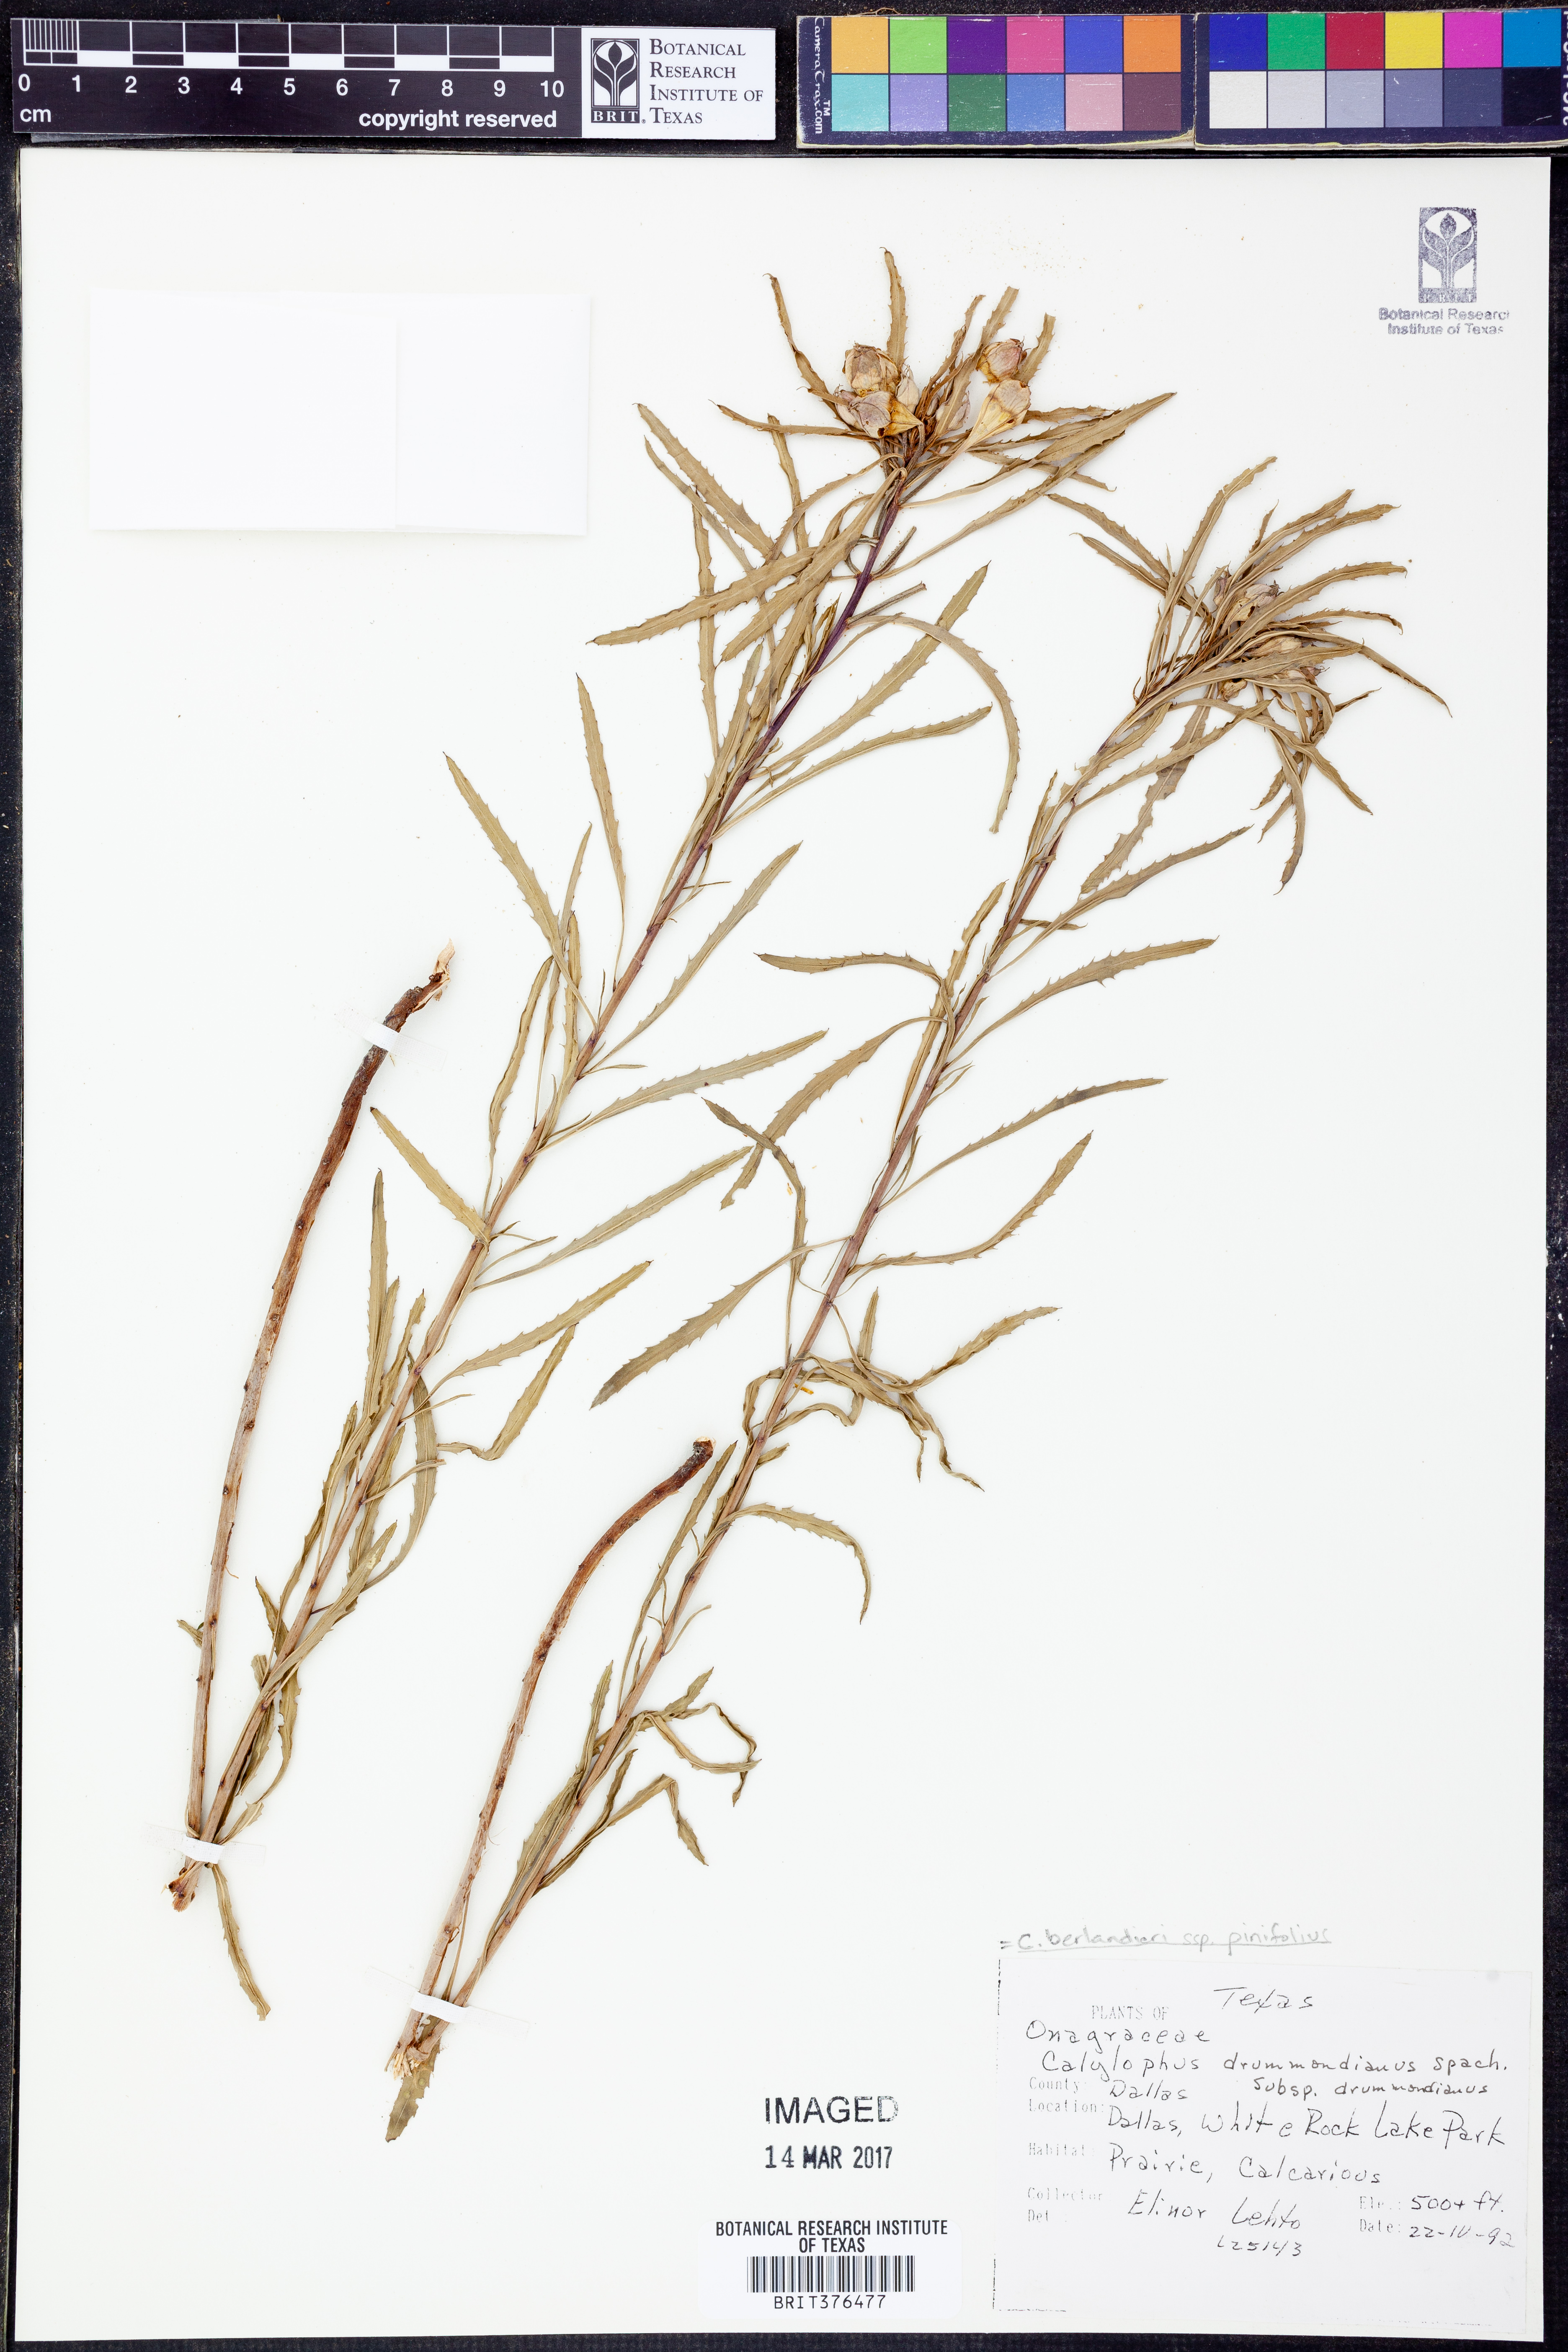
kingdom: Plantae
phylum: Tracheophyta
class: Magnoliopsida
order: Myrtales
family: Onagraceae
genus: Oenothera
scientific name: Oenothera capillifolia
